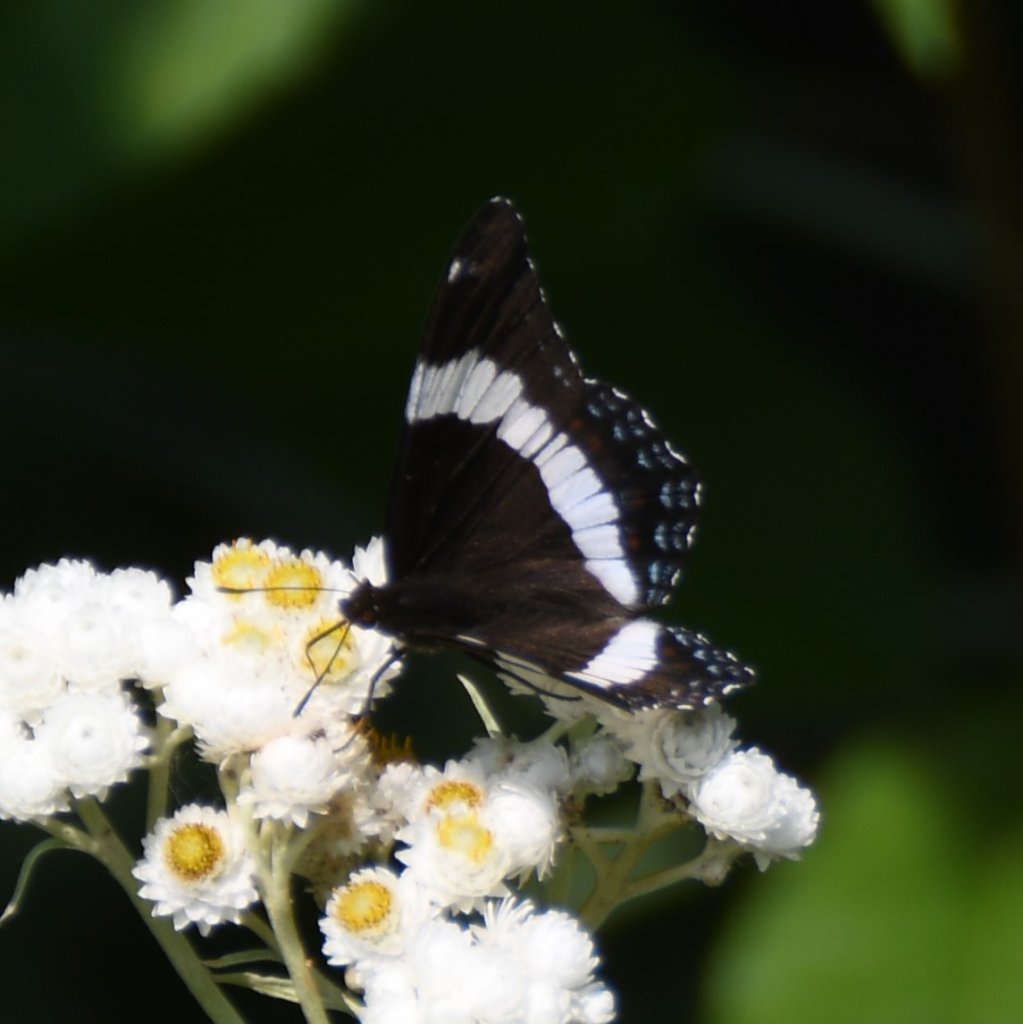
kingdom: Animalia
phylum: Arthropoda
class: Insecta
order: Lepidoptera
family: Nymphalidae
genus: Limenitis
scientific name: Limenitis arthemis
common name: Red-spotted Admiral
